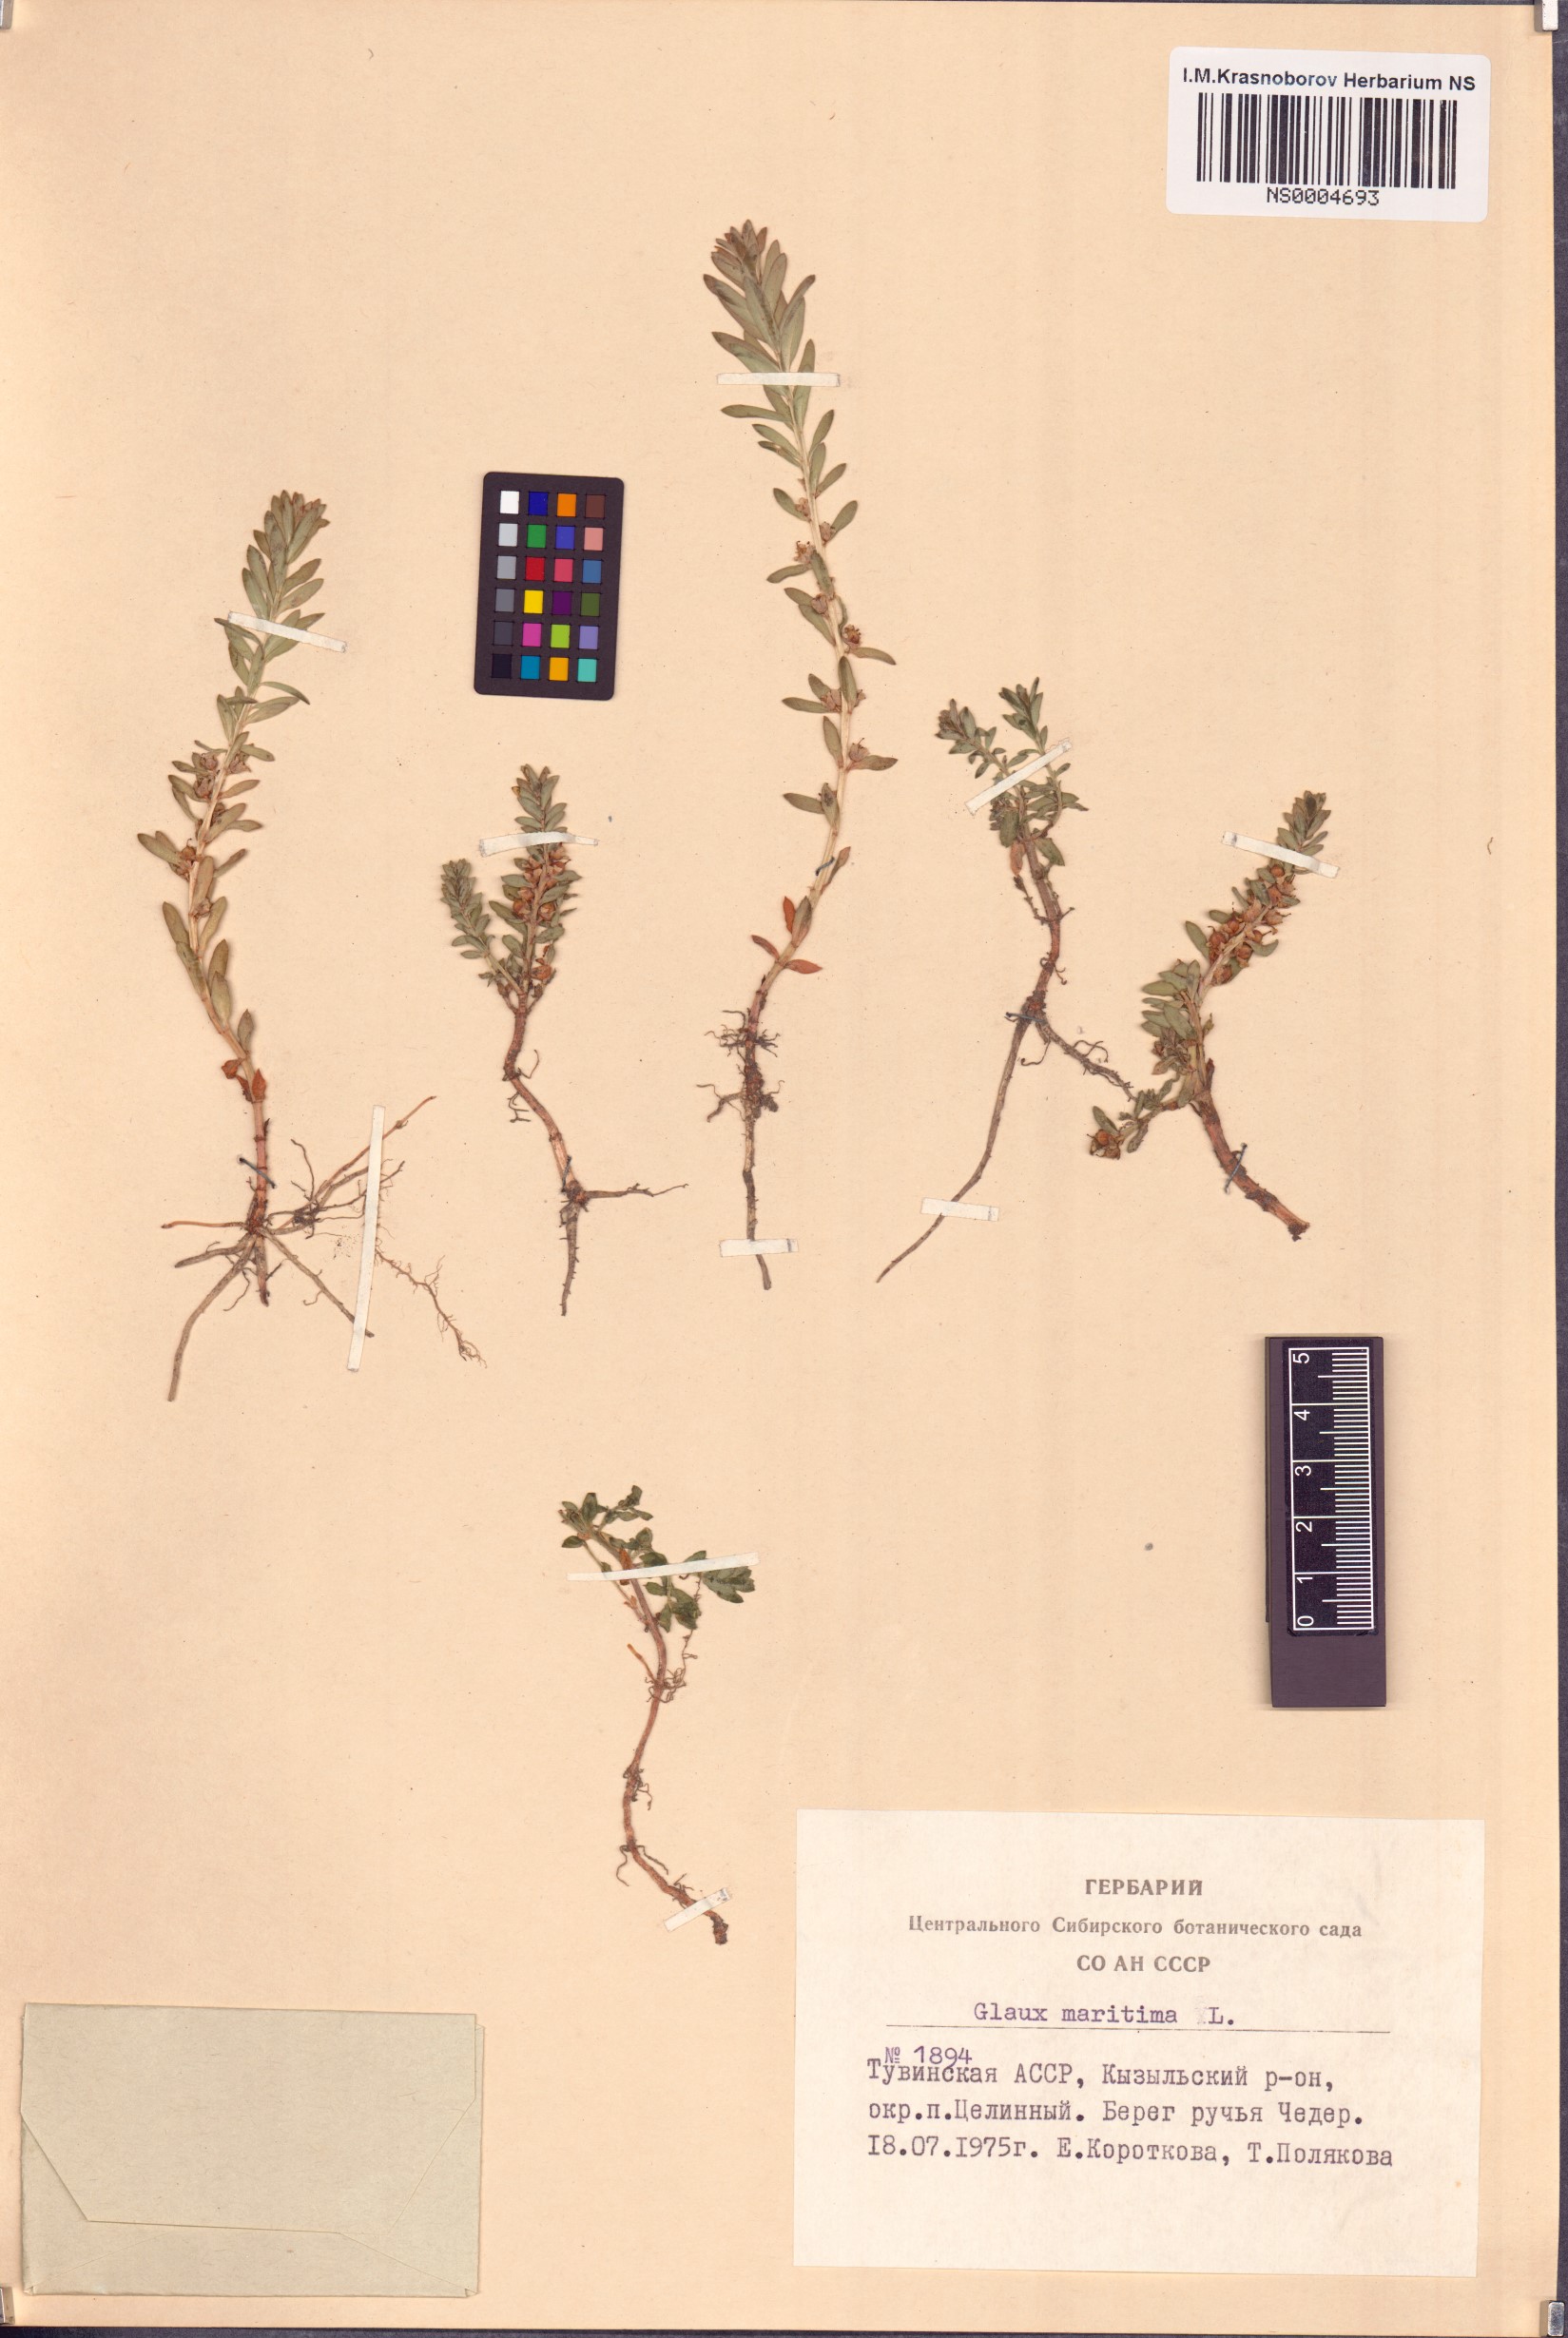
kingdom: Plantae
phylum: Tracheophyta
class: Magnoliopsida
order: Ericales
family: Primulaceae
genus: Lysimachia
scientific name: Lysimachia maritima
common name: Sea milkwort
